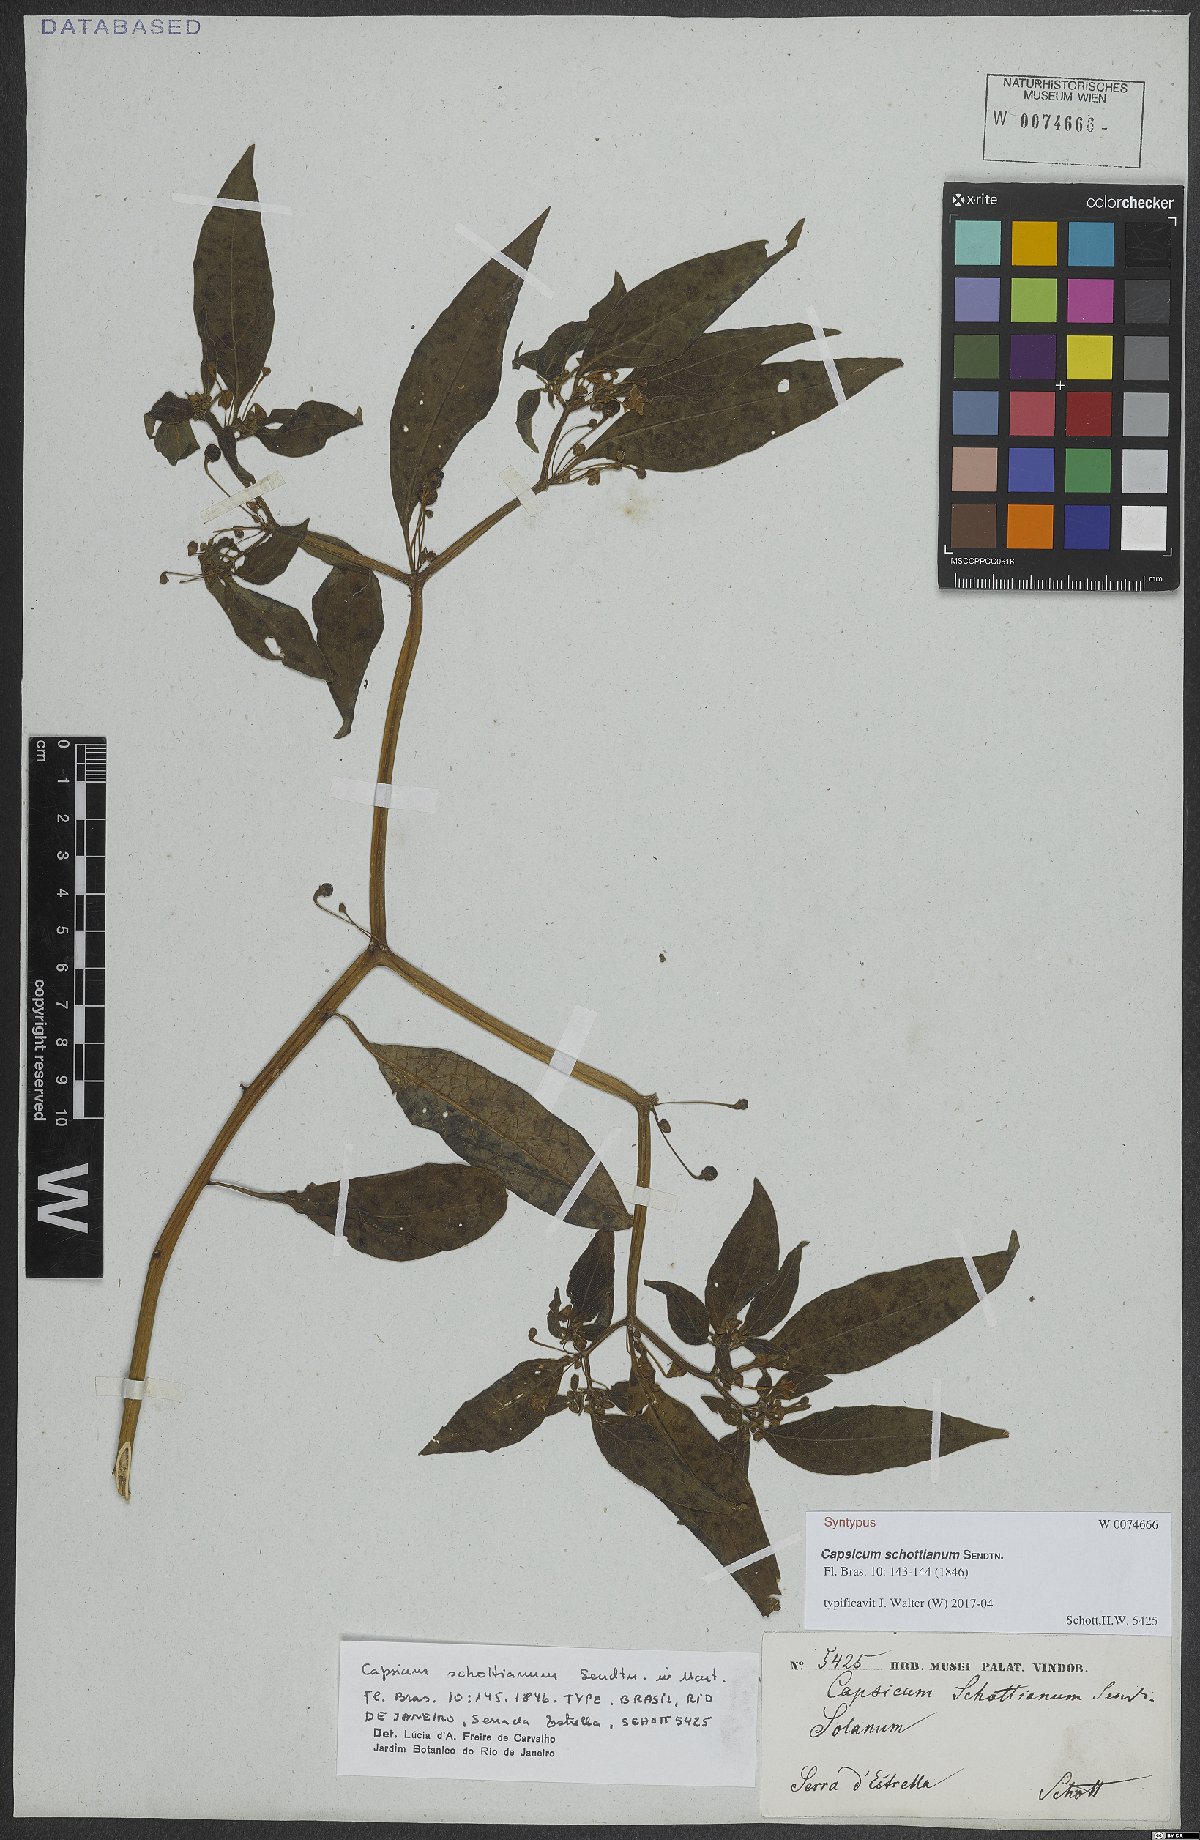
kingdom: Plantae
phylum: Tracheophyta
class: Magnoliopsida
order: Solanales
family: Solanaceae
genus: Capsicum
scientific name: Capsicum schottianum
